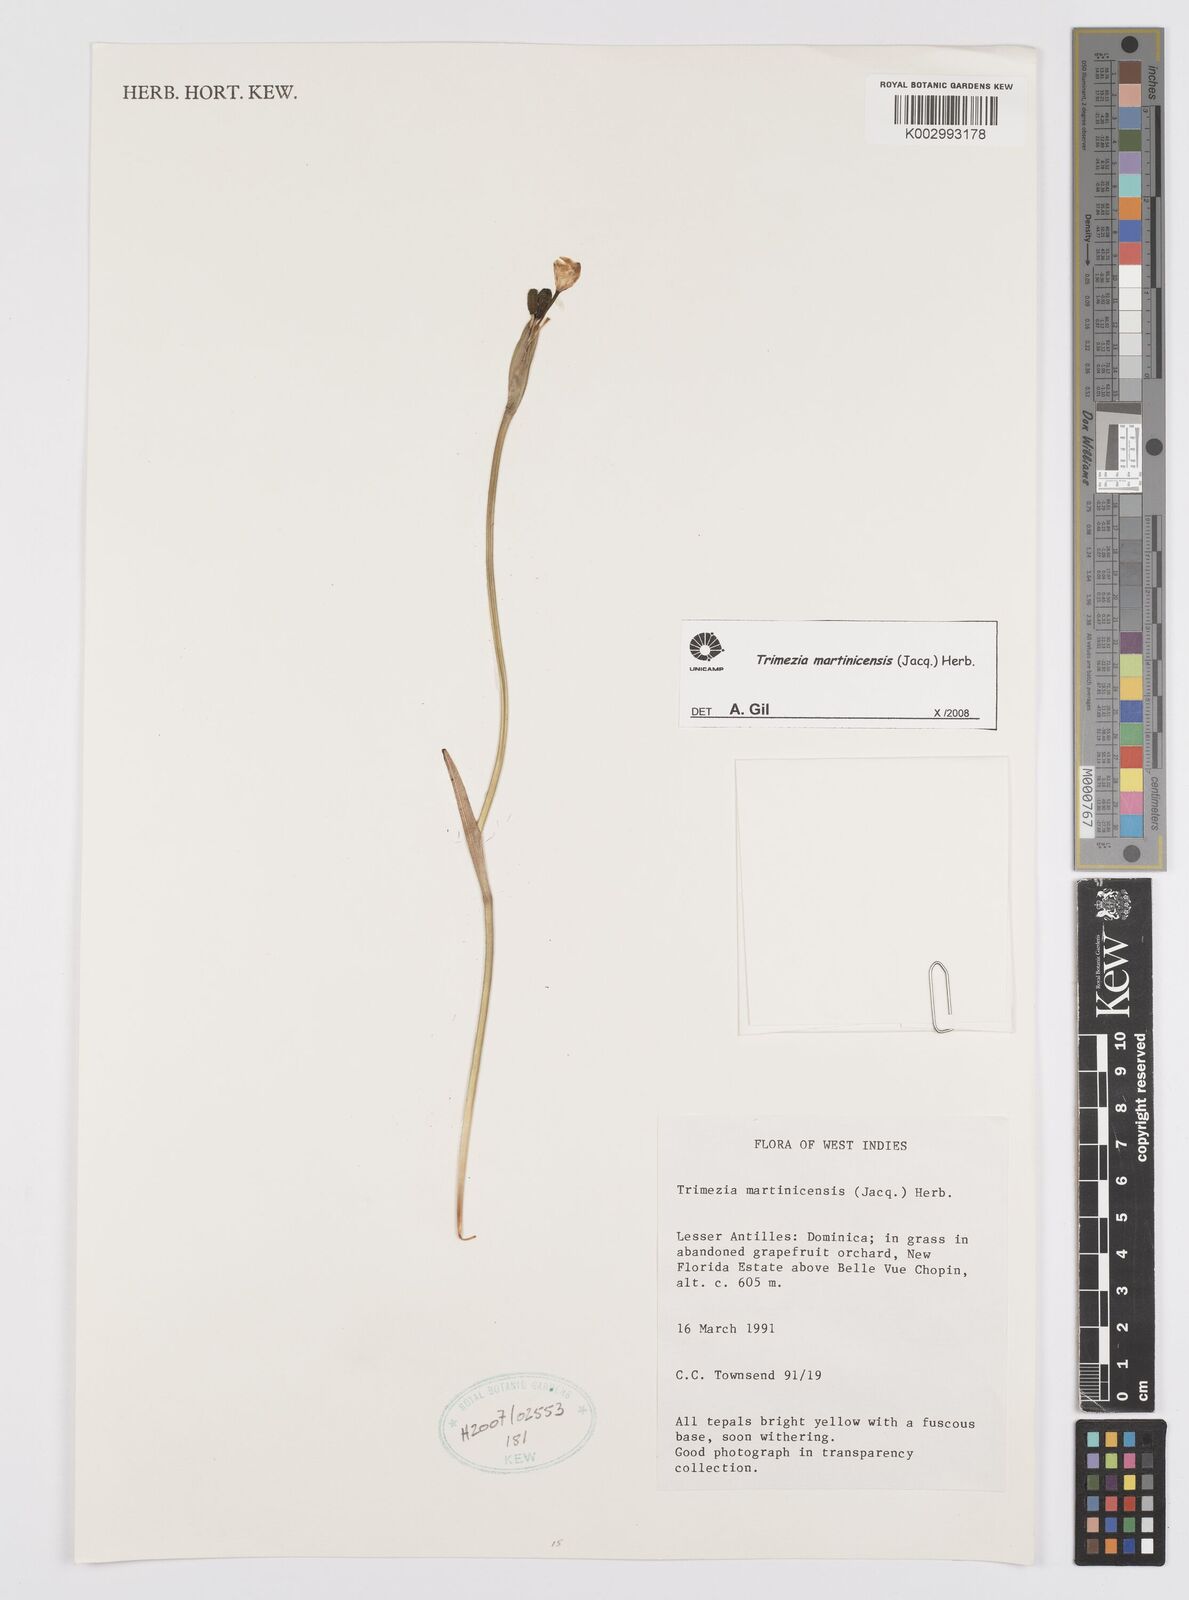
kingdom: Plantae
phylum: Tracheophyta
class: Liliopsida
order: Asparagales
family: Iridaceae
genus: Trimezia
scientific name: Trimezia martinicensis
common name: Martinique trimezia
